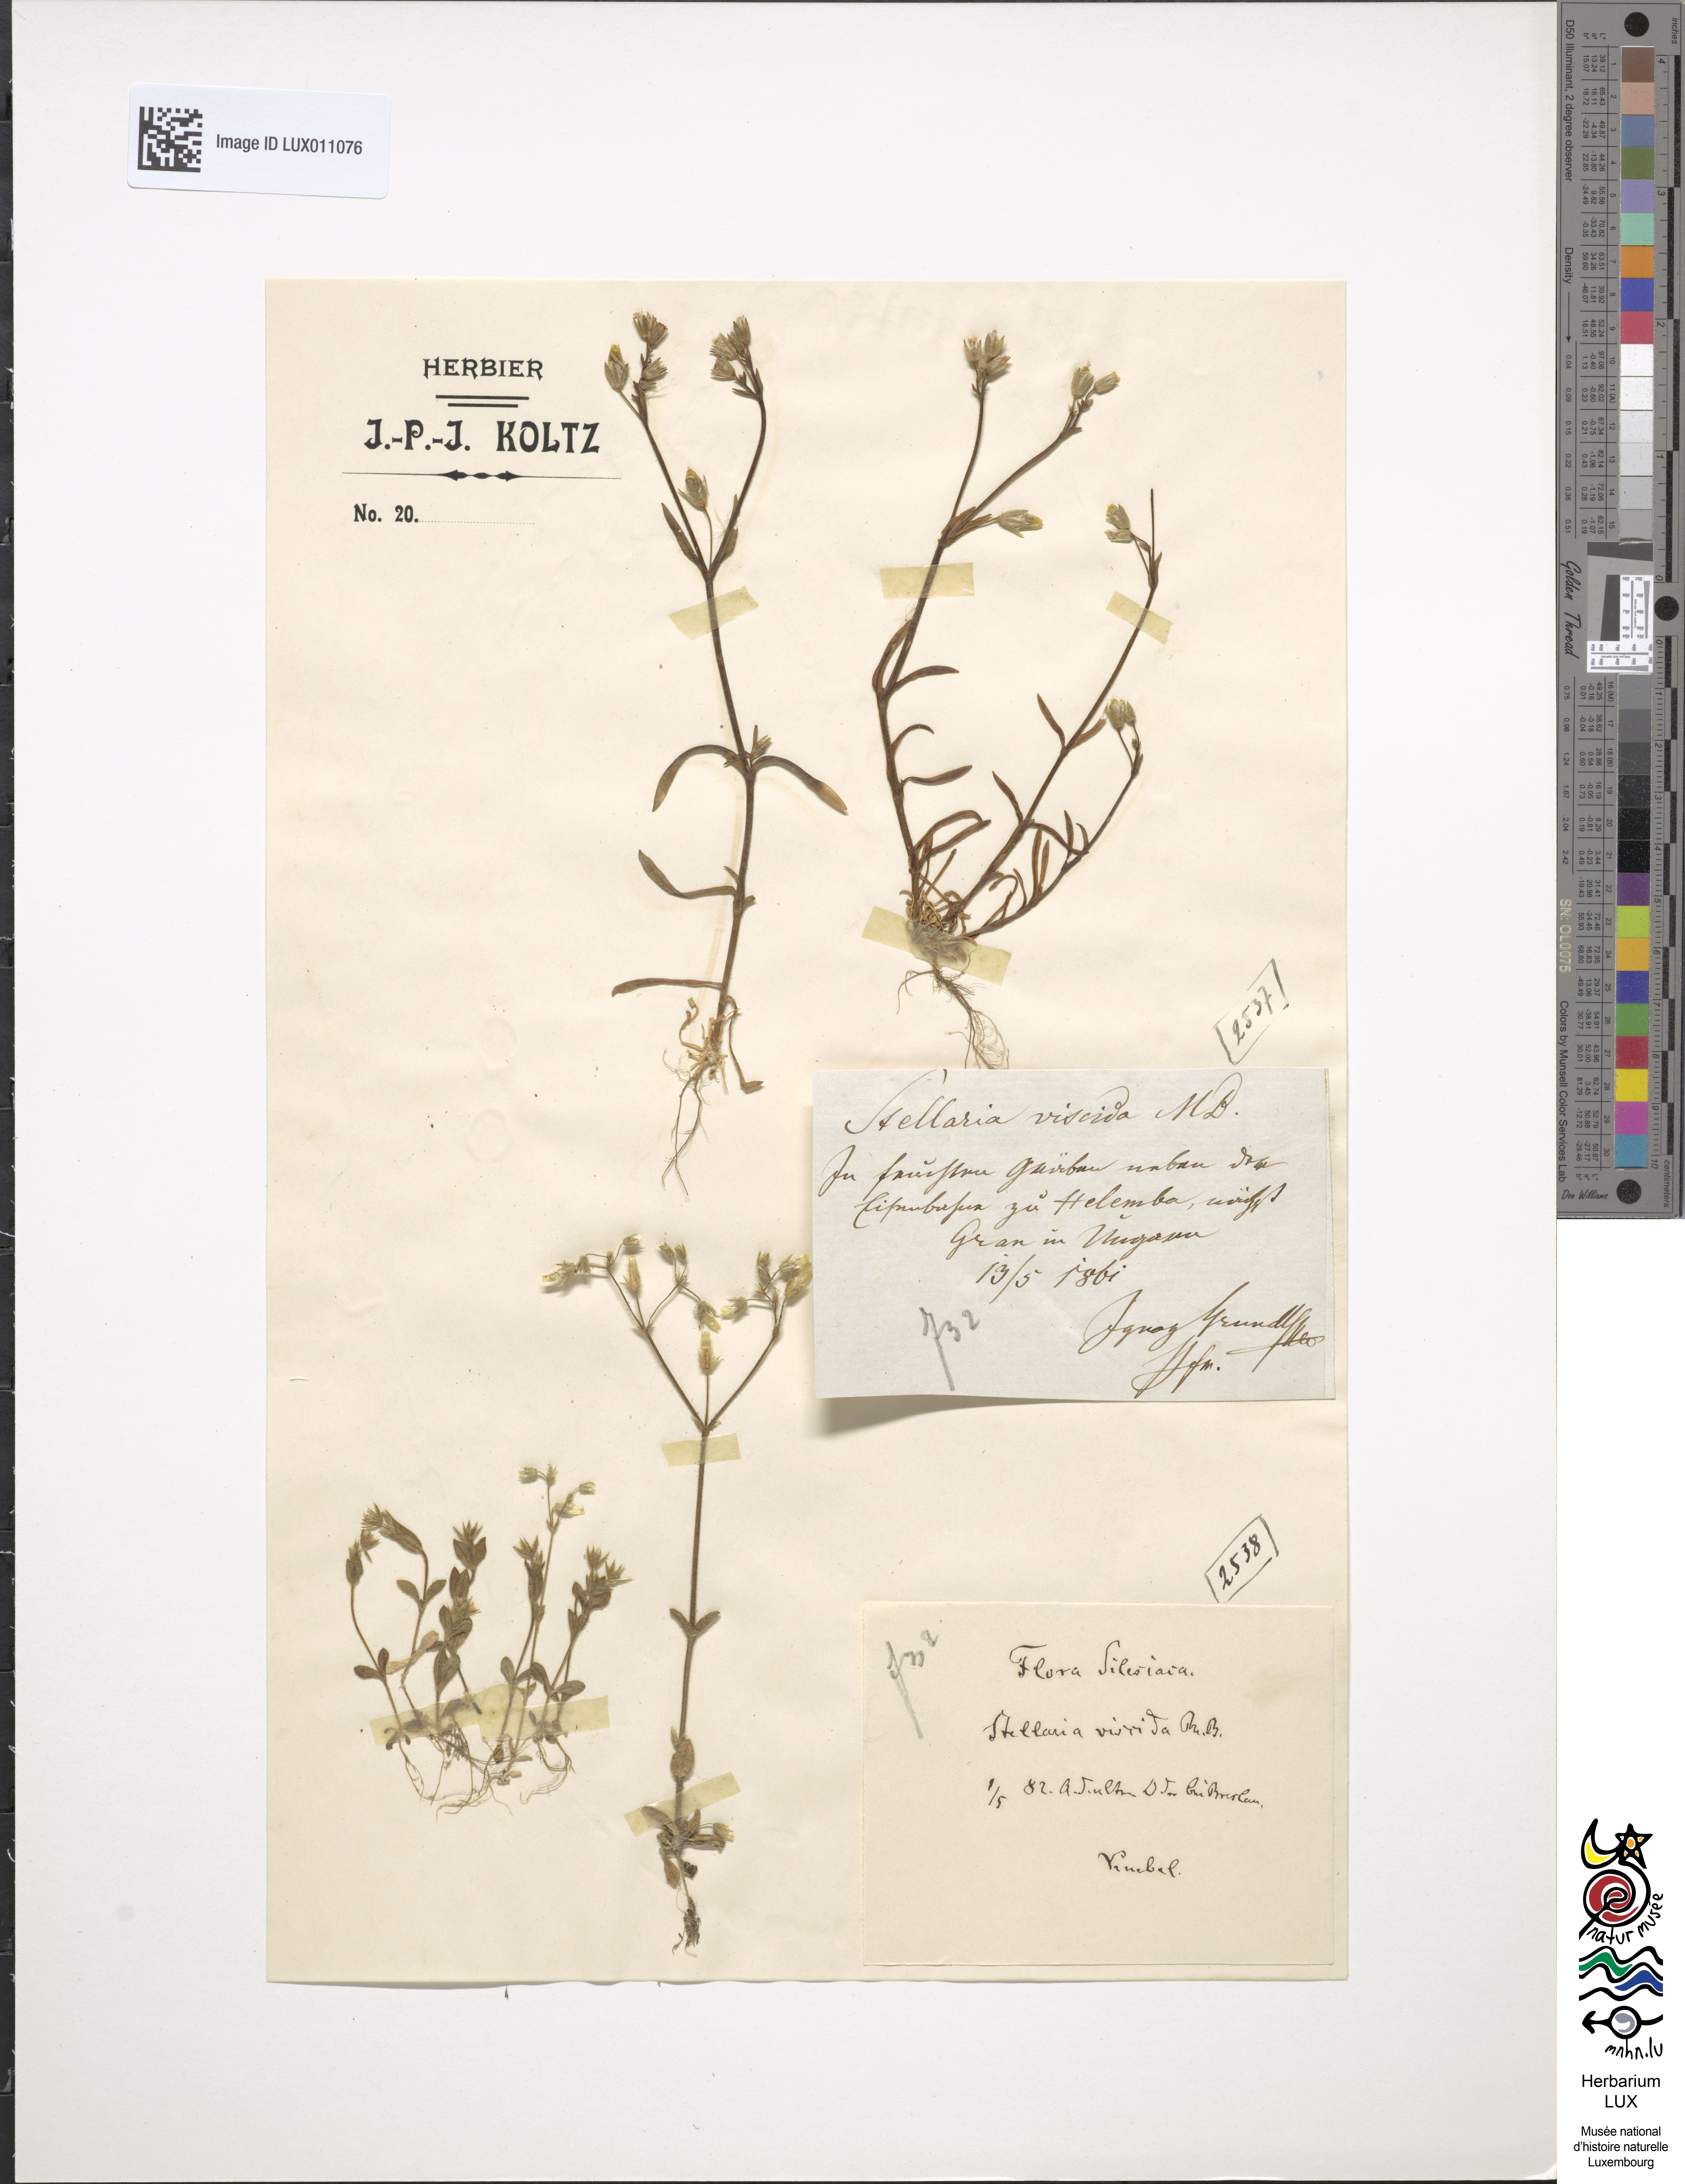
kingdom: Plantae
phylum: Tracheophyta
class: Magnoliopsida
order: Caryophyllales
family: Caryophyllaceae
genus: Dichodon
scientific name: Dichodon viscidum
